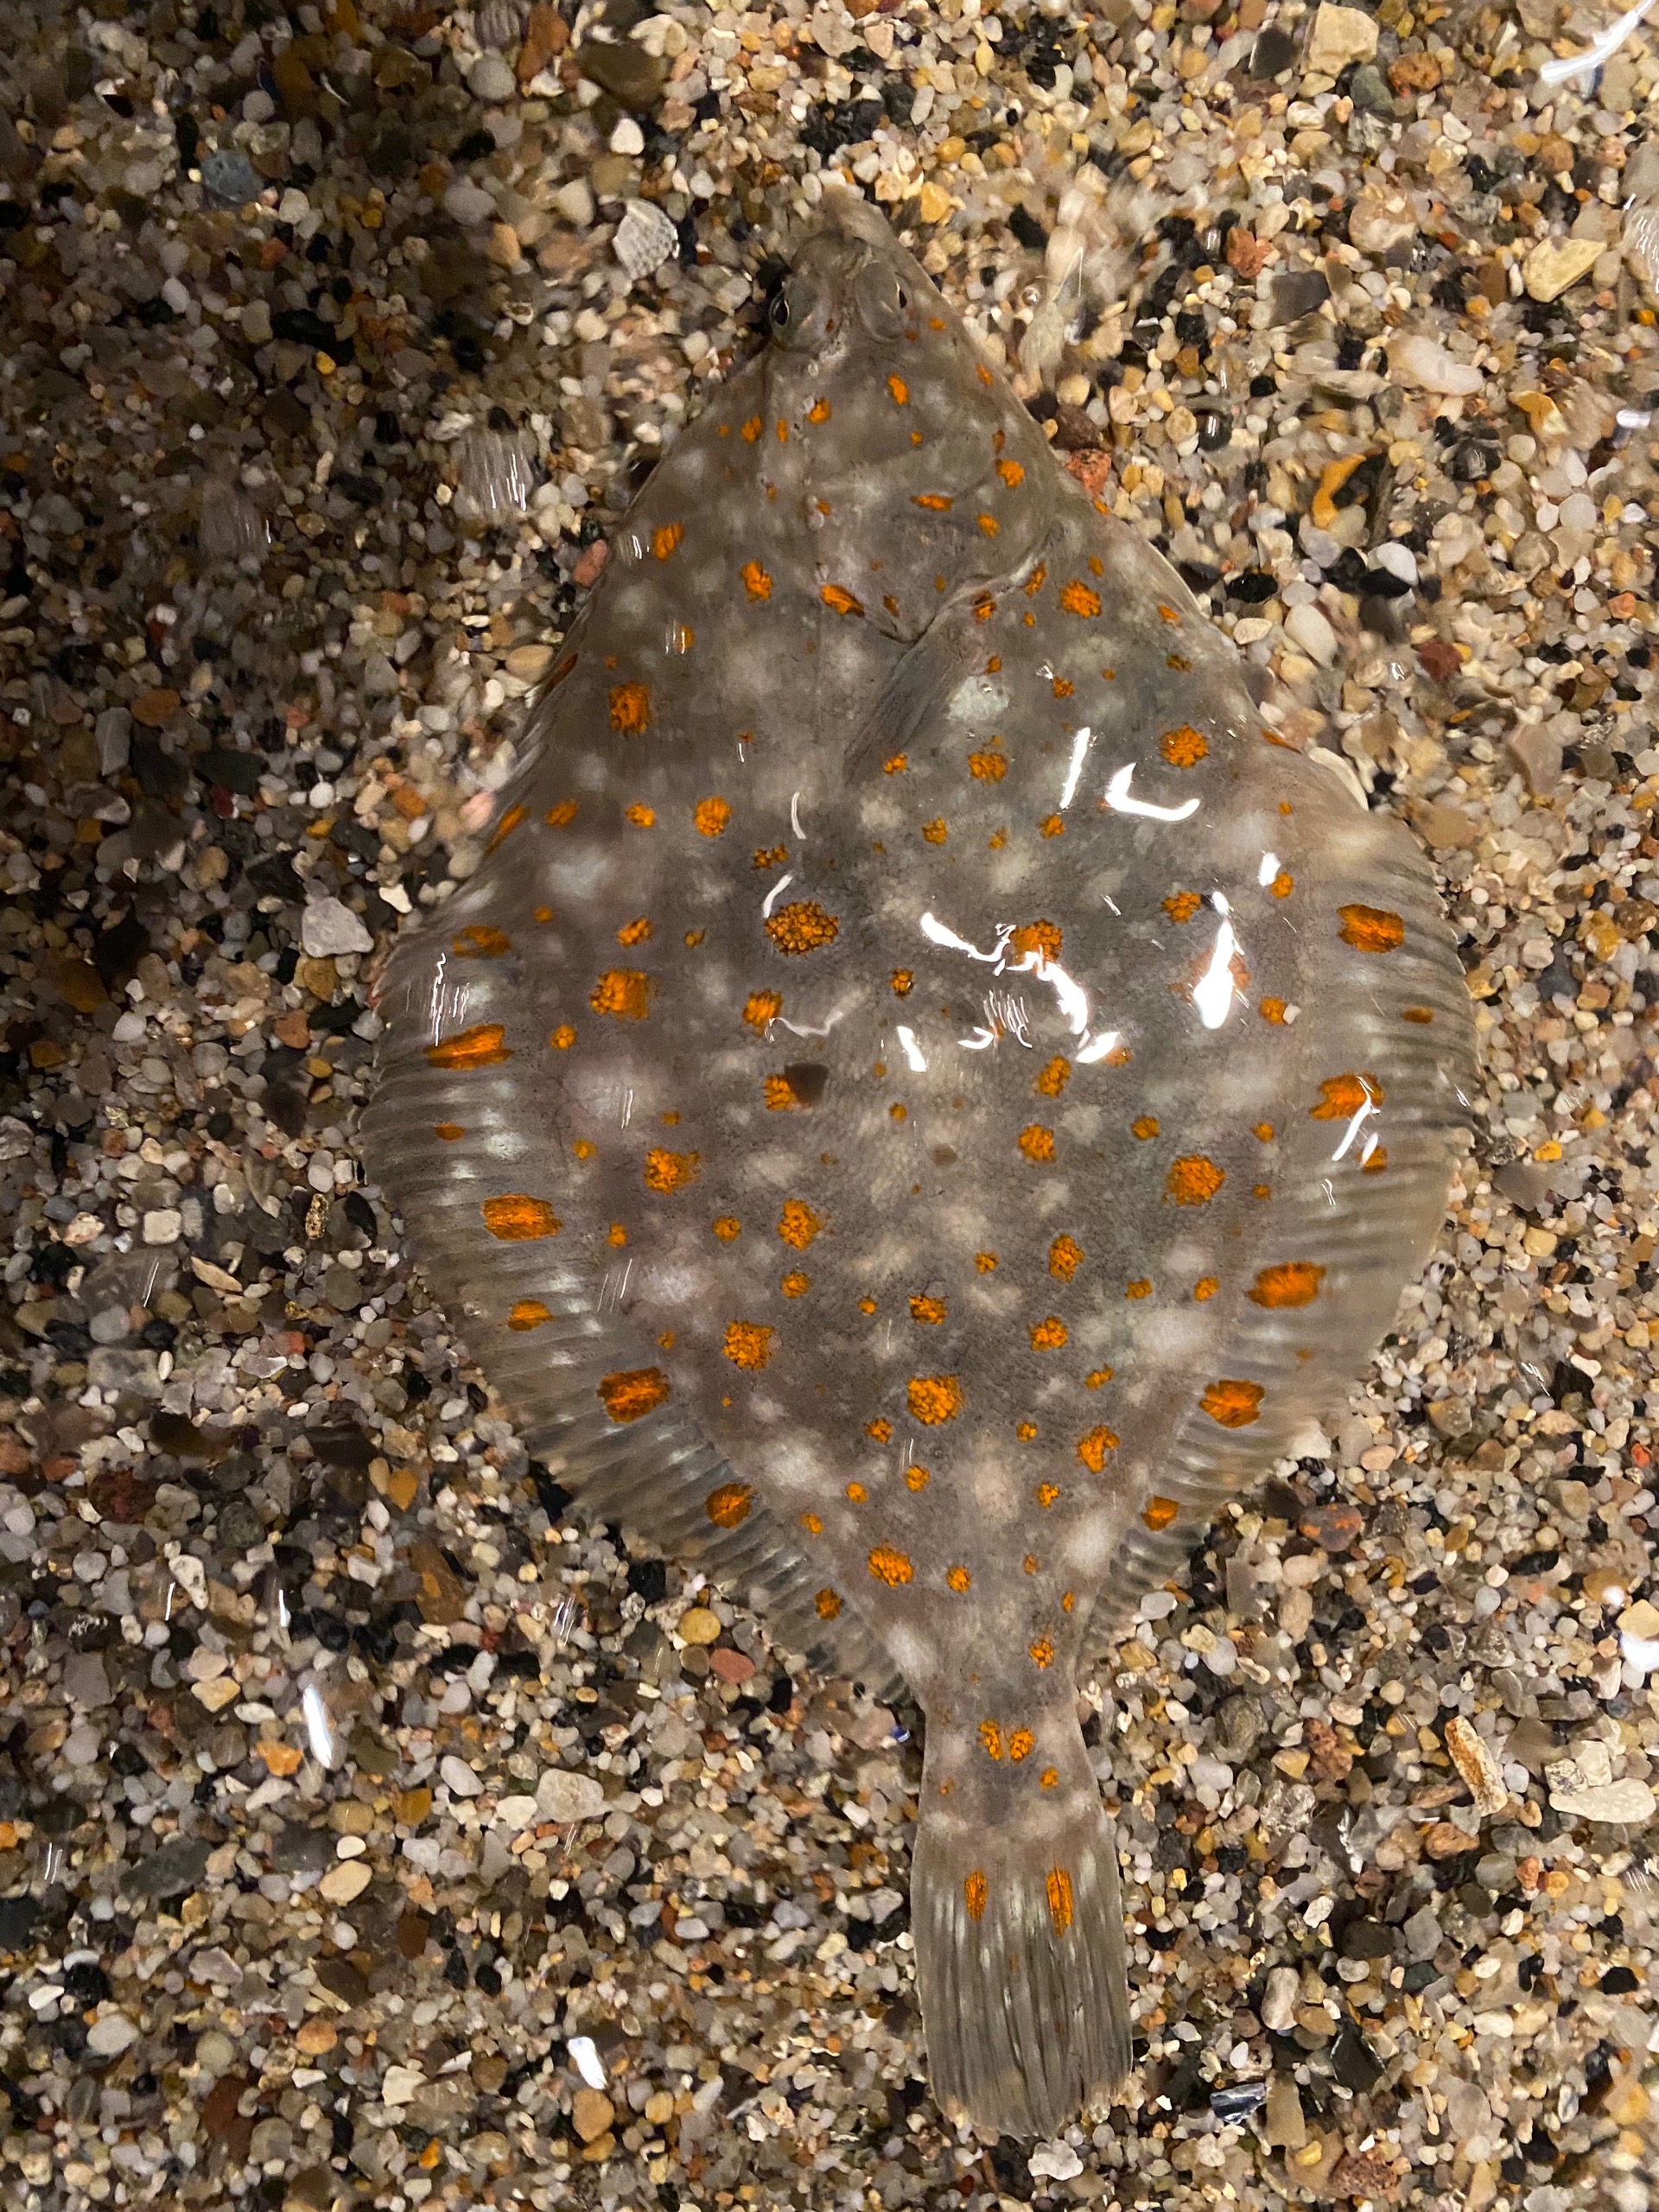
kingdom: Animalia
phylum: Chordata
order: Pleuronectiformes
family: Pleuronectidae
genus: Pleuronectes
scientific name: Pleuronectes platessa
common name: Rødspætte
